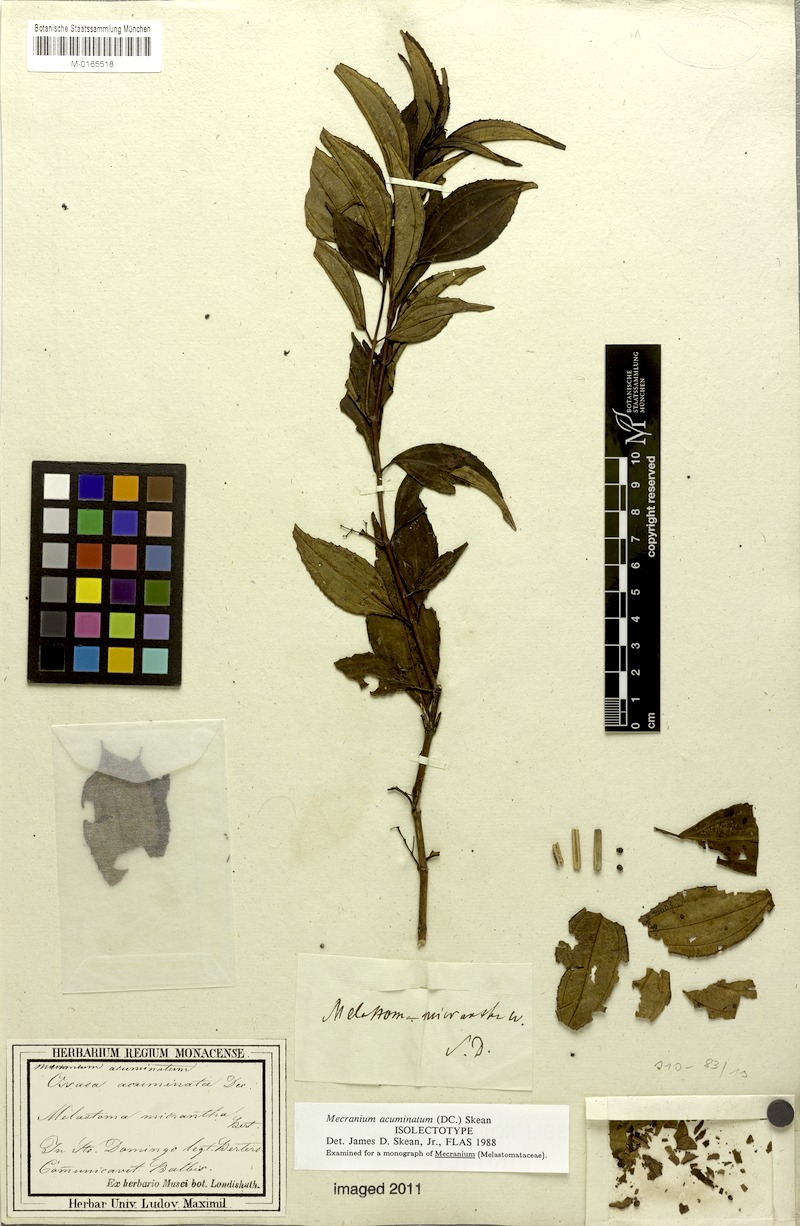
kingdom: Plantae
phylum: Tracheophyta
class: Magnoliopsida
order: Myrtales
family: Melastomataceae
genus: Miconia
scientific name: Miconia acuminoides
